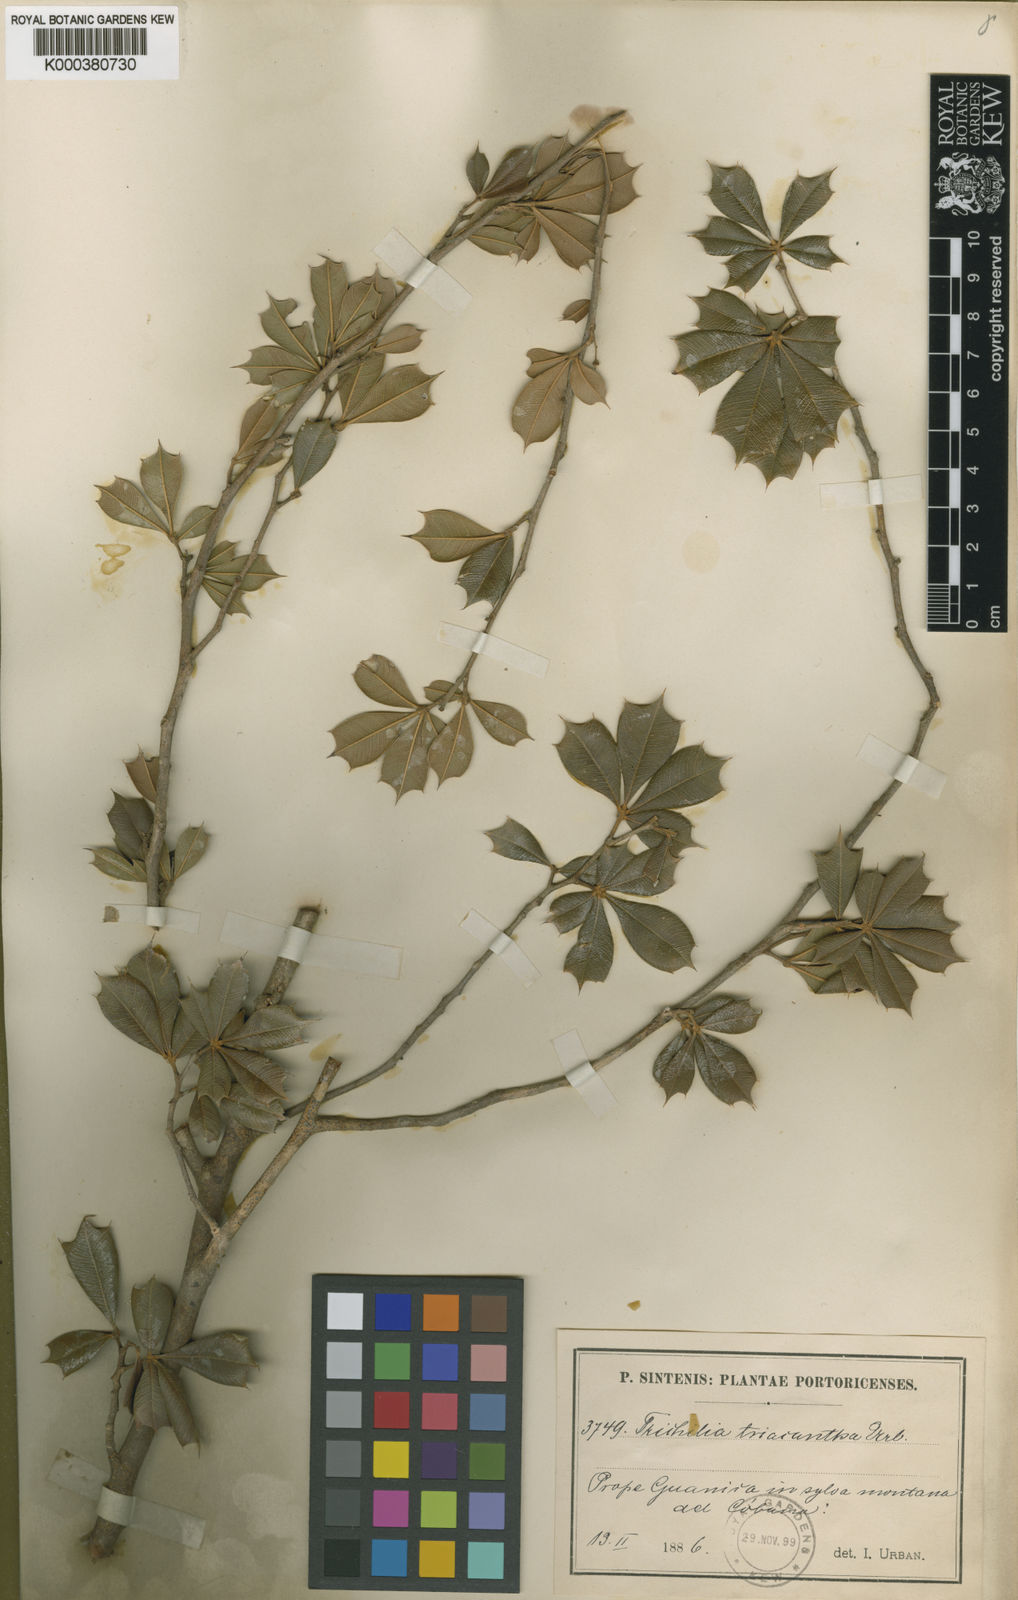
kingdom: Plantae
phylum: Tracheophyta
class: Magnoliopsida
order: Sapindales
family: Meliaceae
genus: Trichilia
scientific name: Trichilia triacantha
